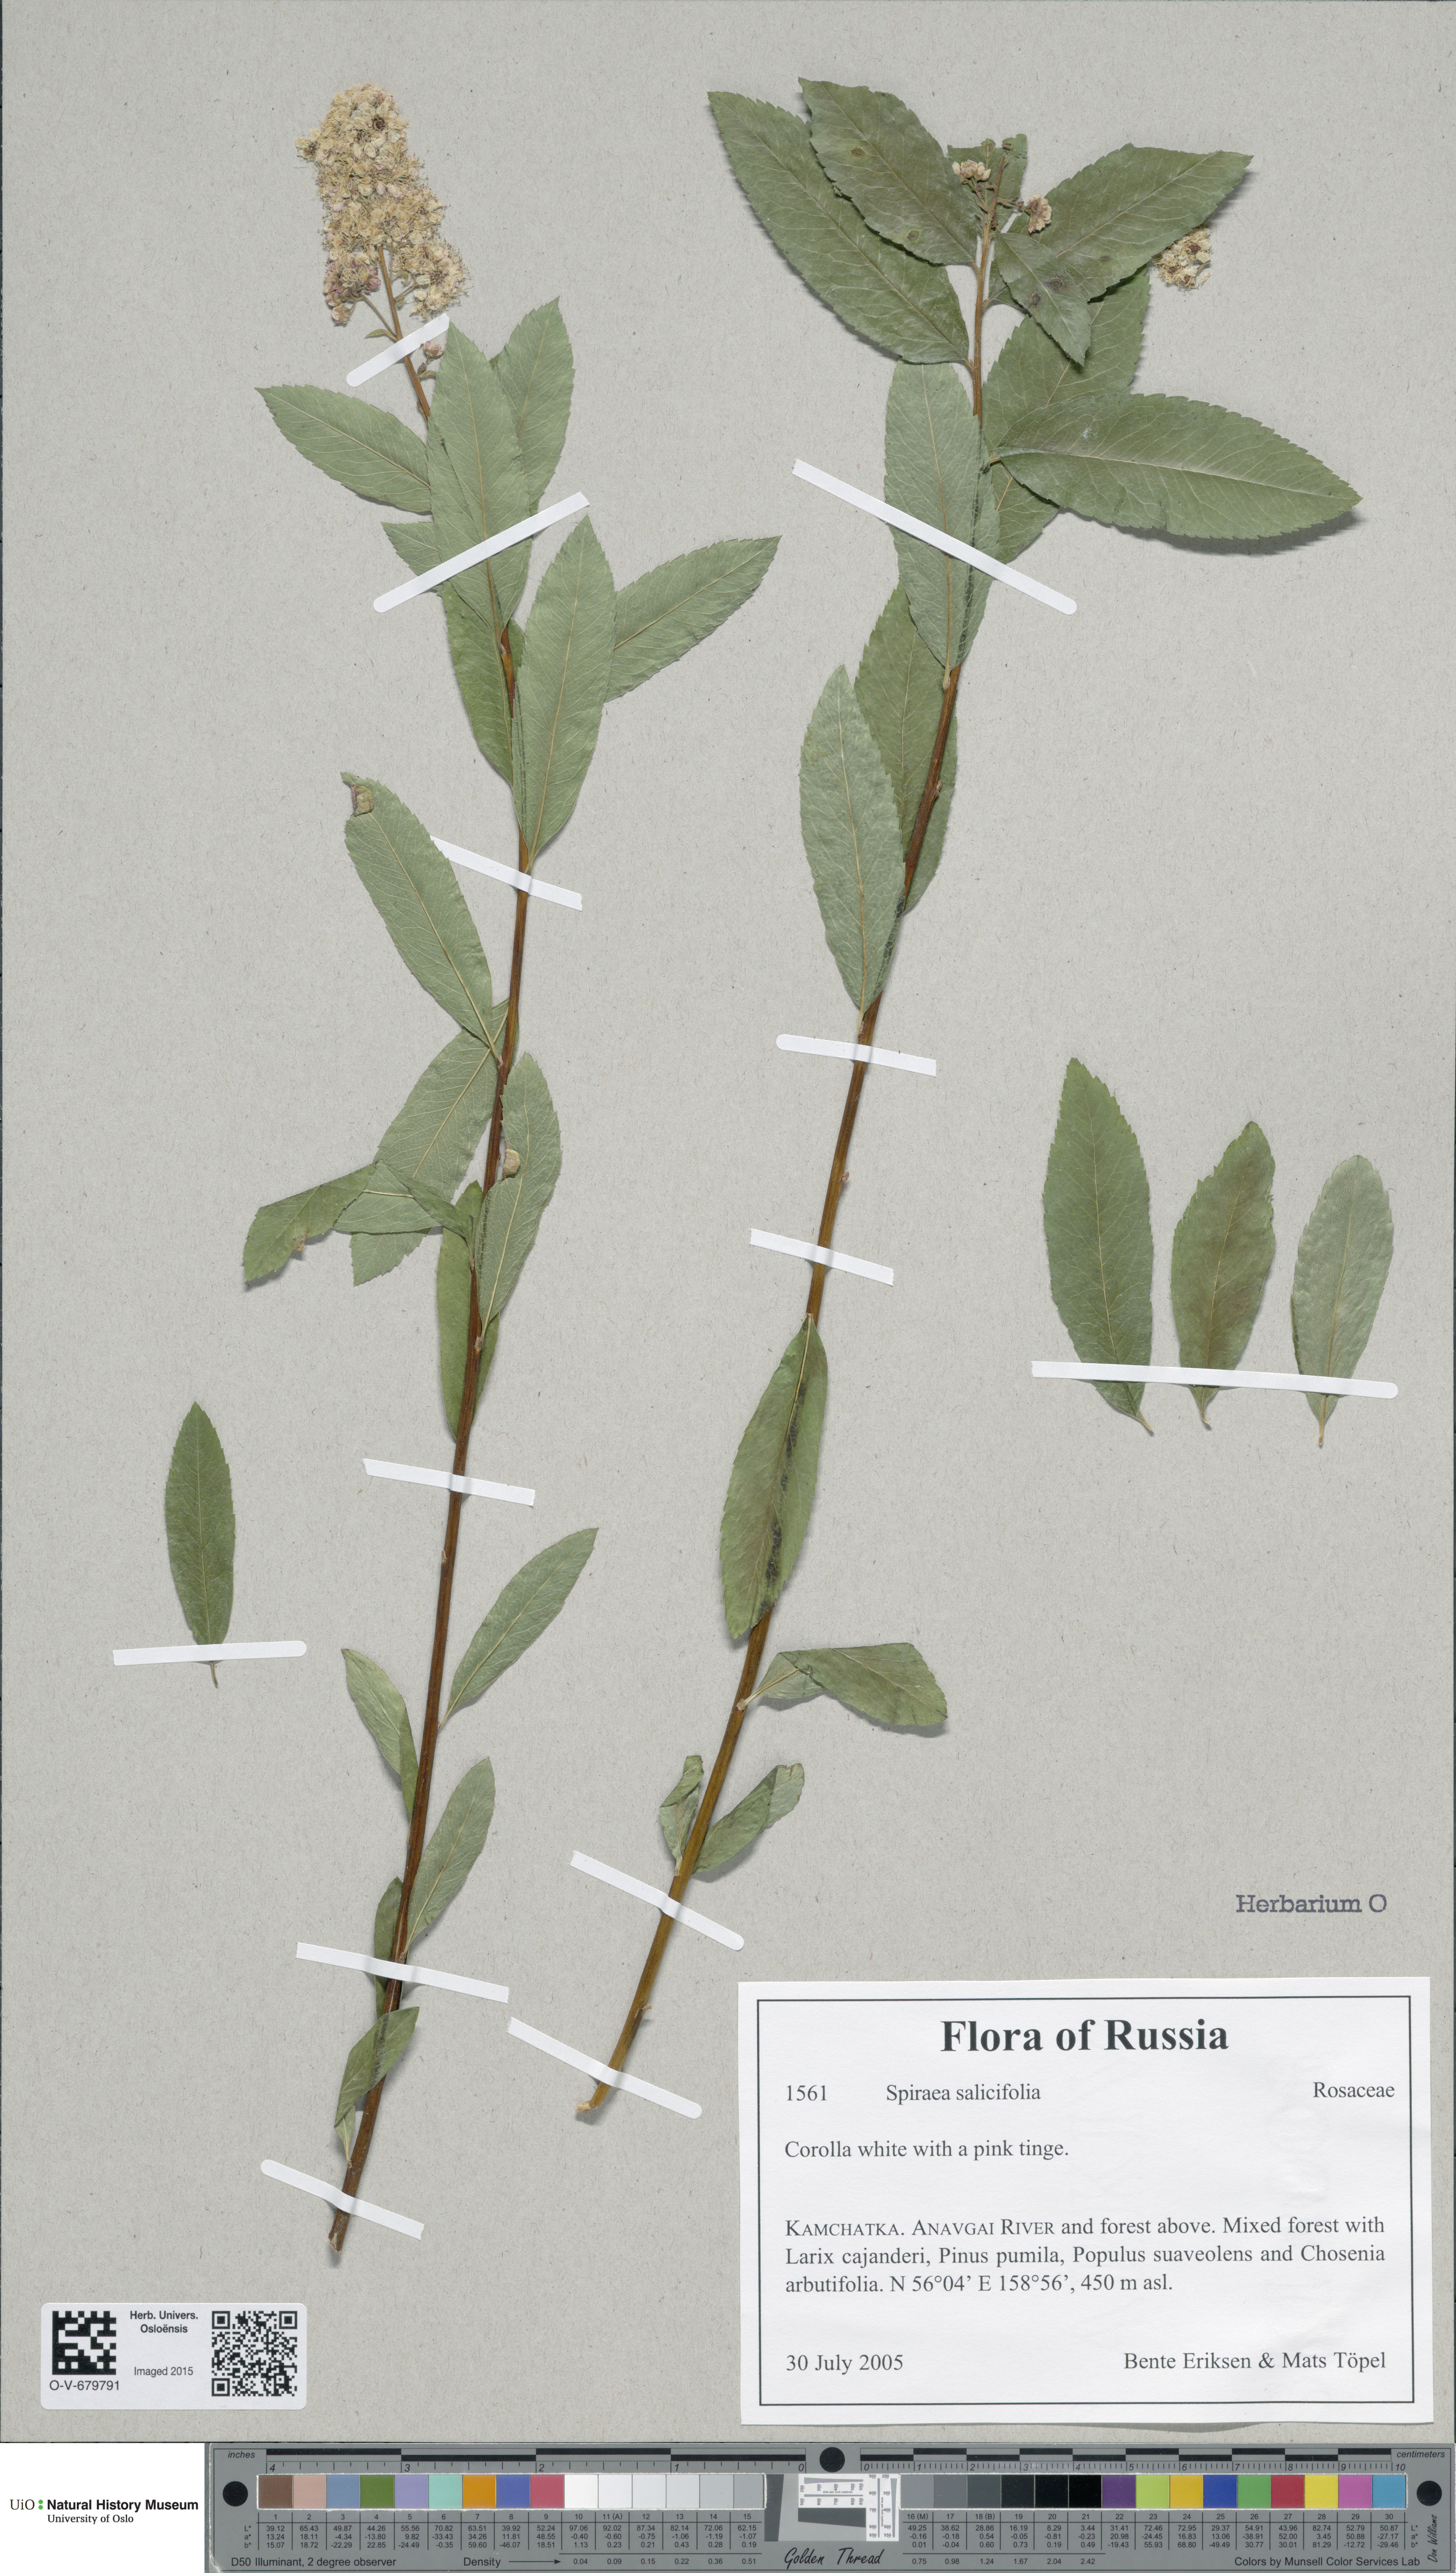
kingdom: Plantae
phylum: Tracheophyta
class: Magnoliopsida
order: Rosales
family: Rosaceae
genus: Spiraea
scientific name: Spiraea salicifolia
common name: Bridewort
